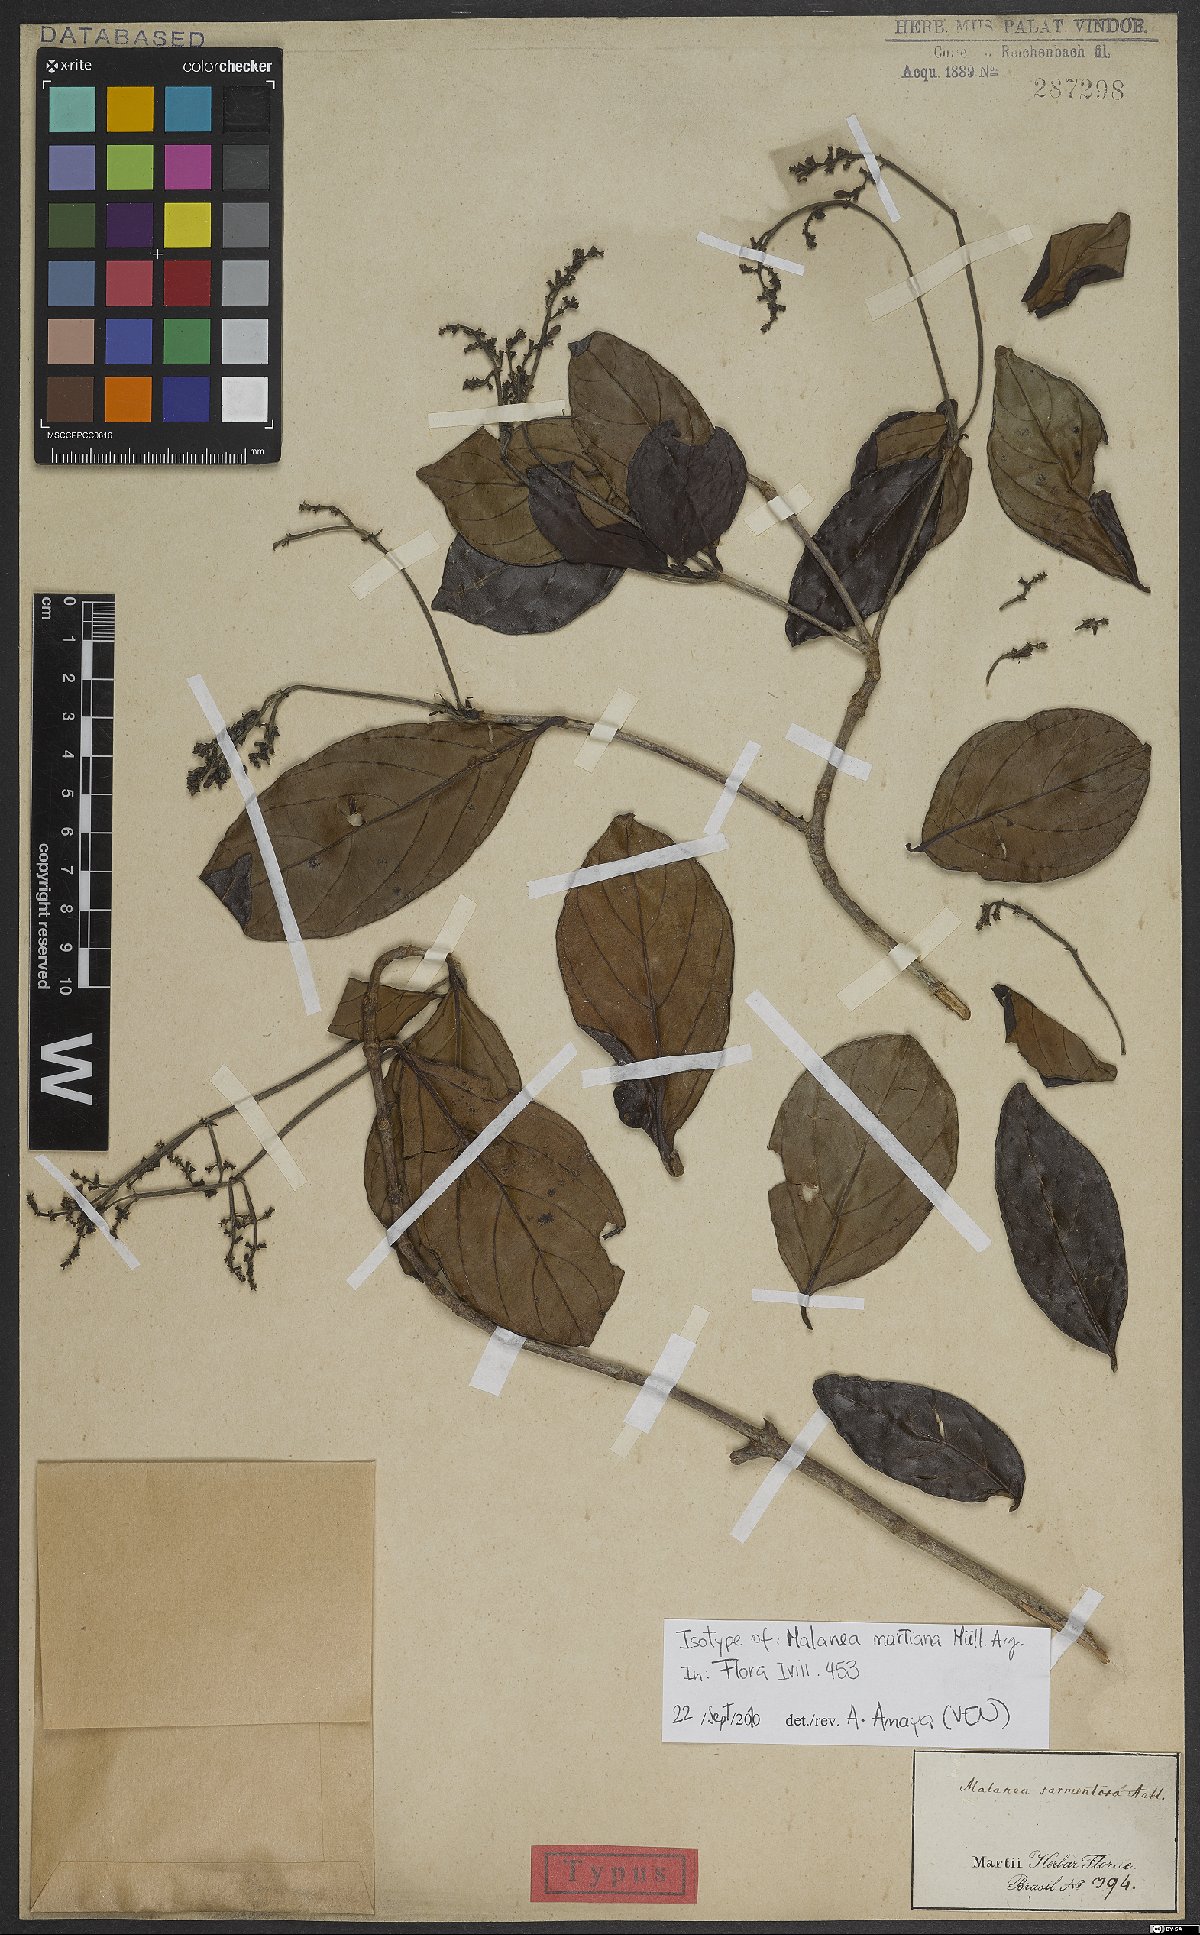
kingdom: Plantae
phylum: Tracheophyta
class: Magnoliopsida
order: Gentianales
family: Rubiaceae
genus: Malanea
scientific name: Malanea martiana
